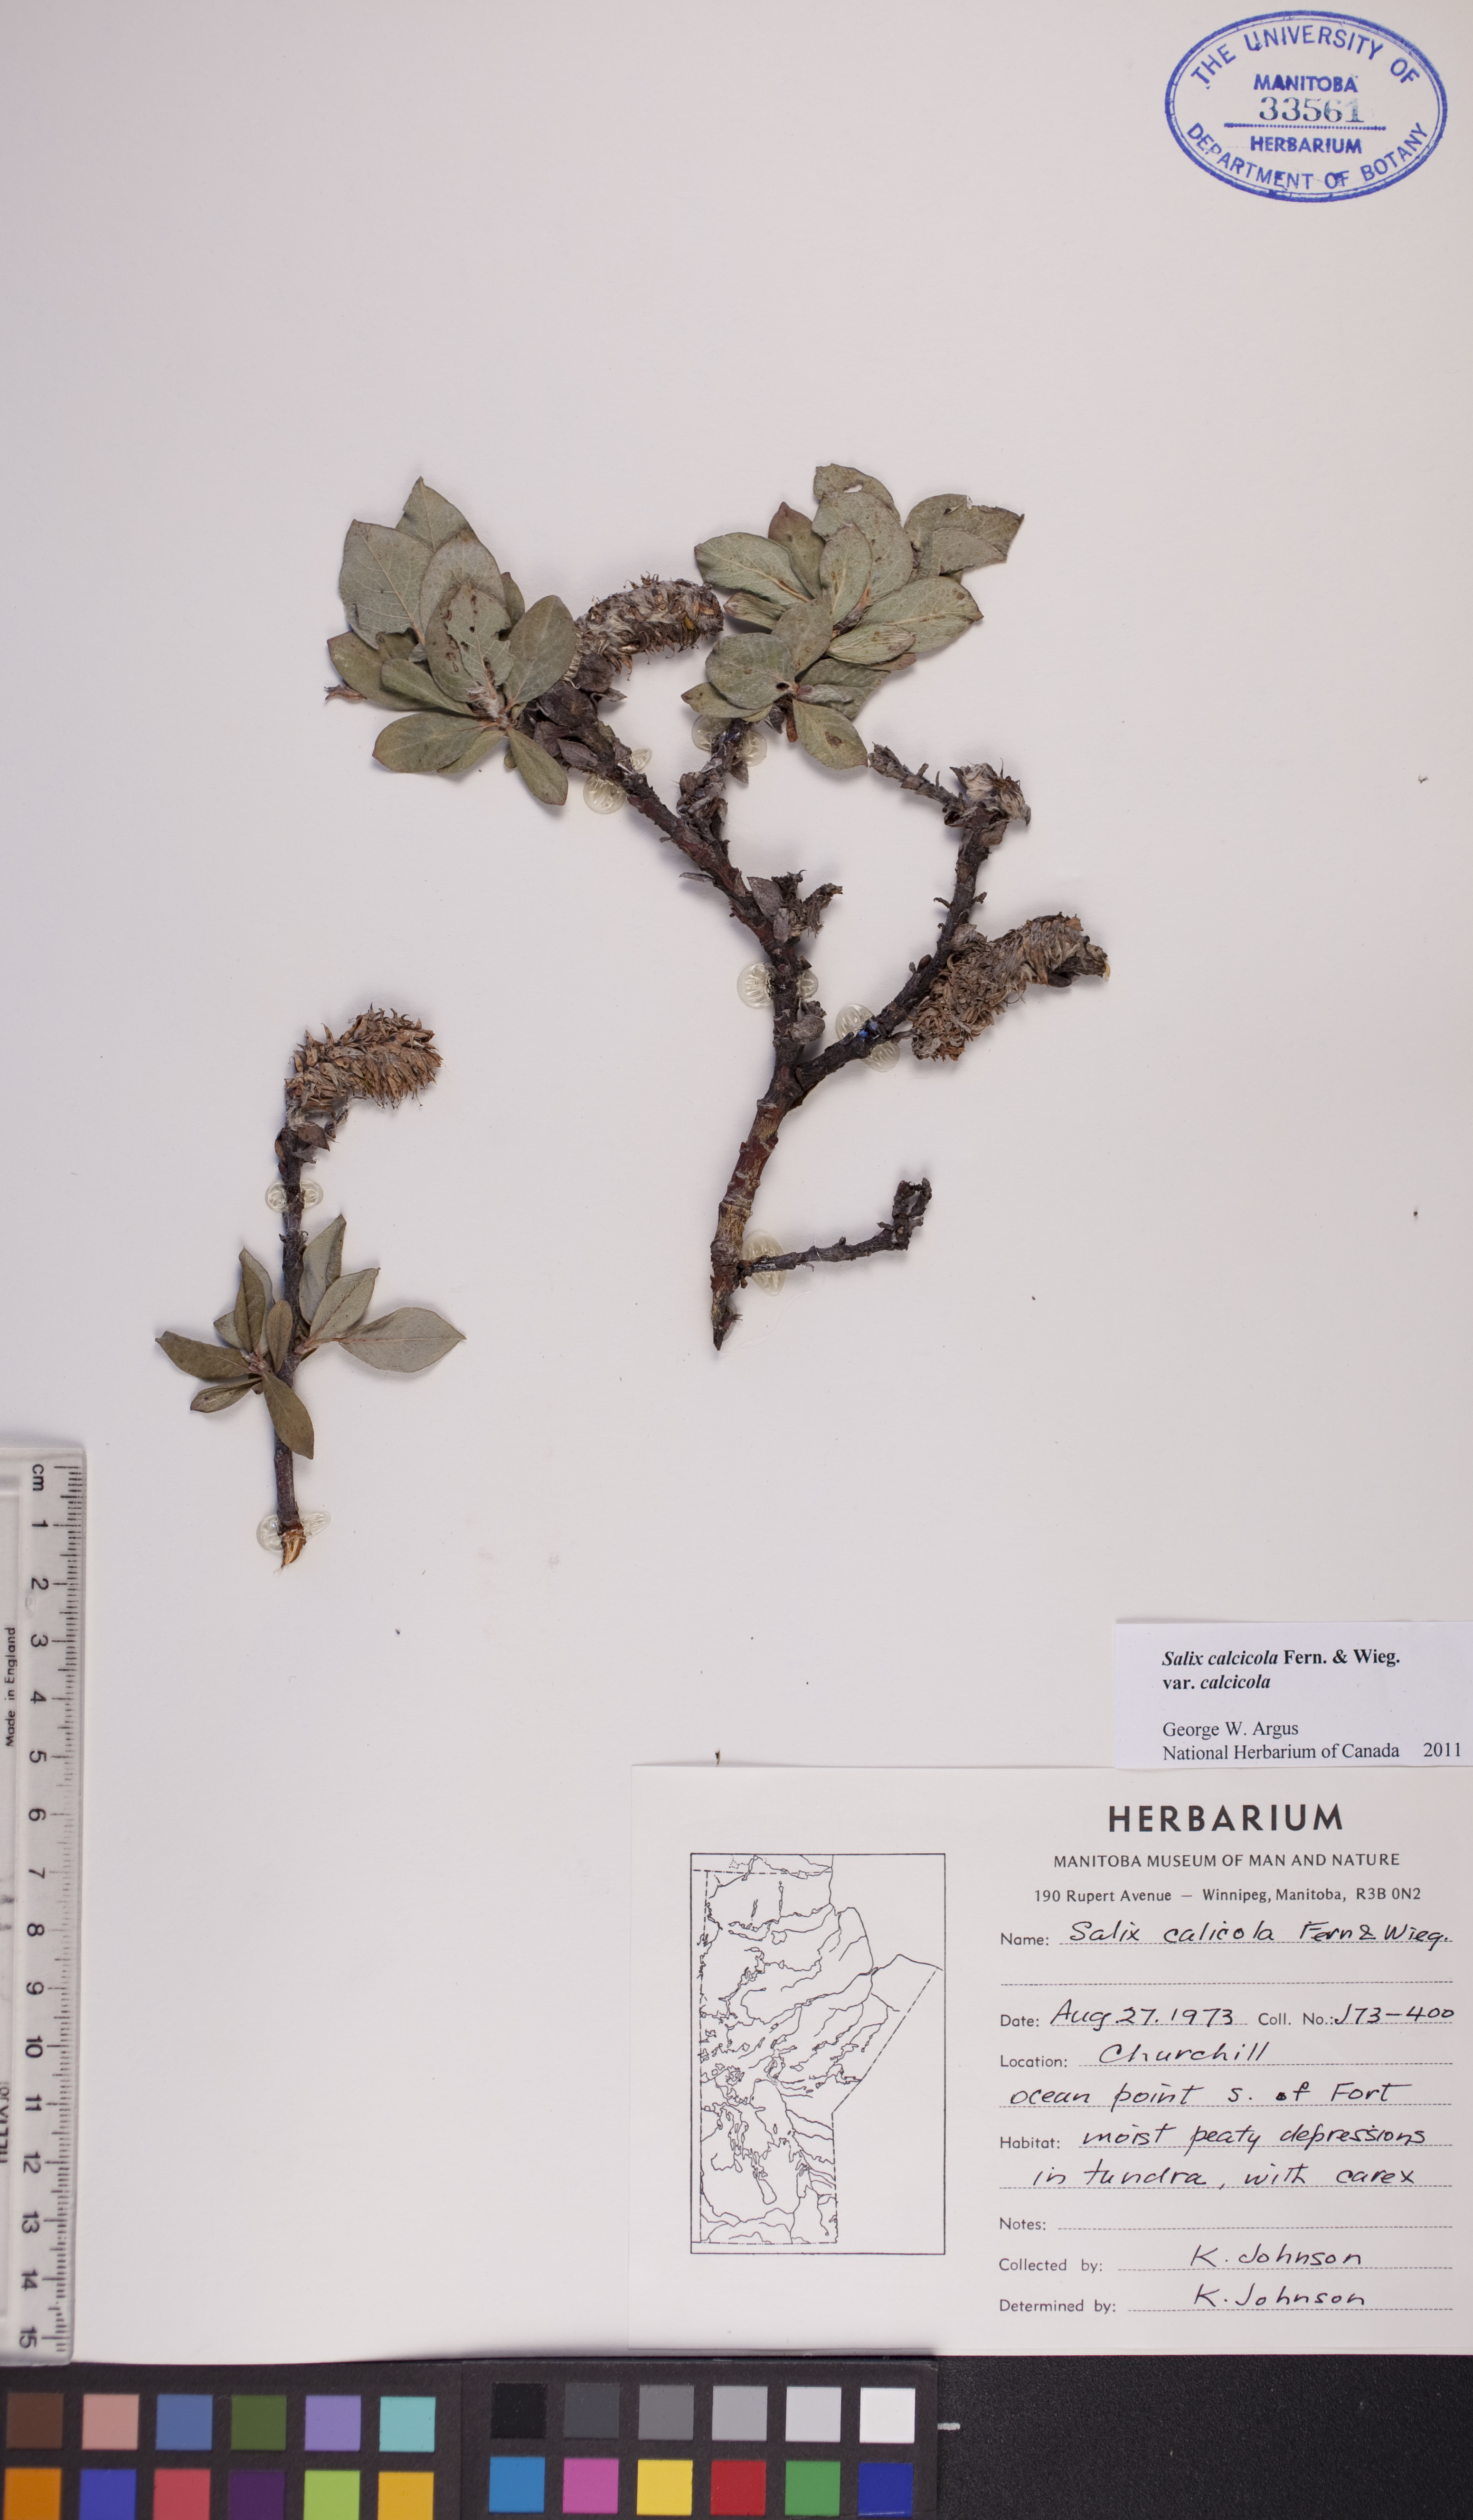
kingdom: Plantae
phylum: Tracheophyta
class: Magnoliopsida
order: Malpighiales
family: Salicaceae
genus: Salix
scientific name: Salix calcicola
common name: Calcareous willow
